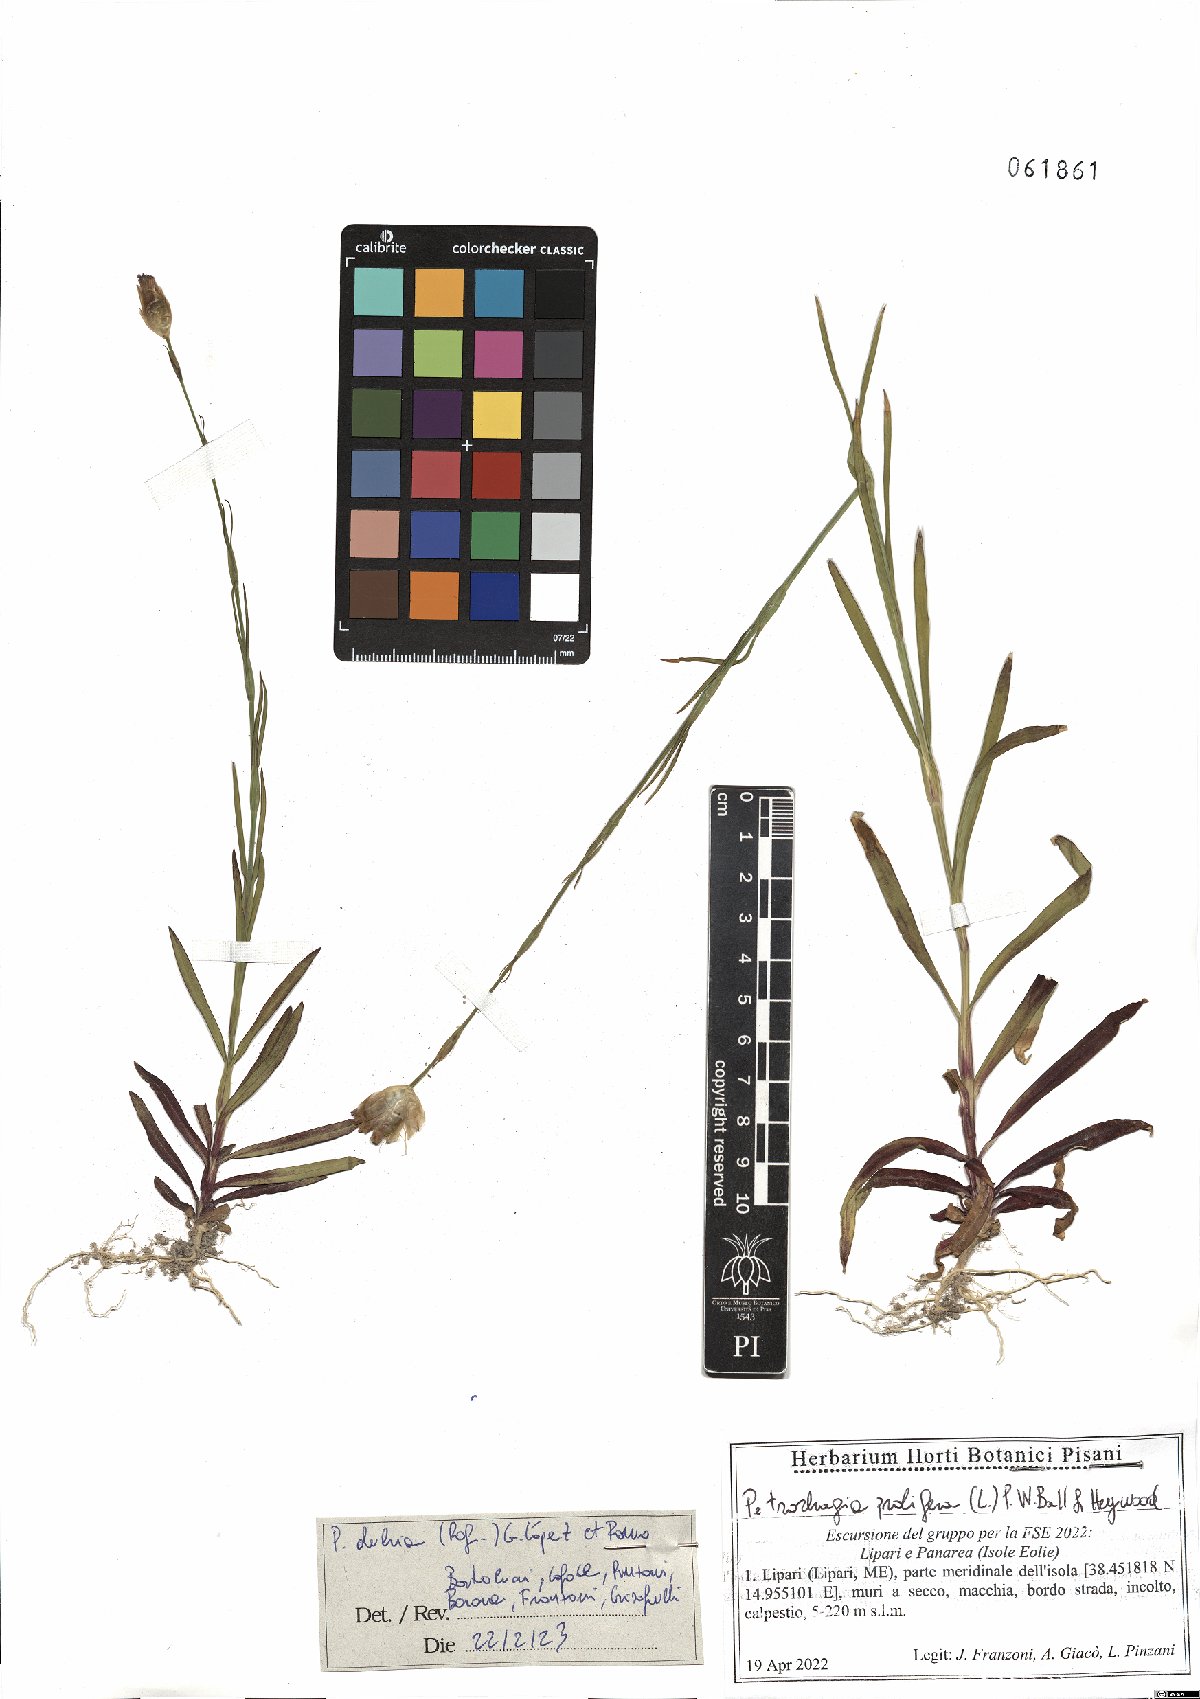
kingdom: Plantae
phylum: Tracheophyta
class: Magnoliopsida
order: Caryophyllales
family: Caryophyllaceae
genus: Petrorhagia
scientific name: Petrorhagia dubia
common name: Hairypink
